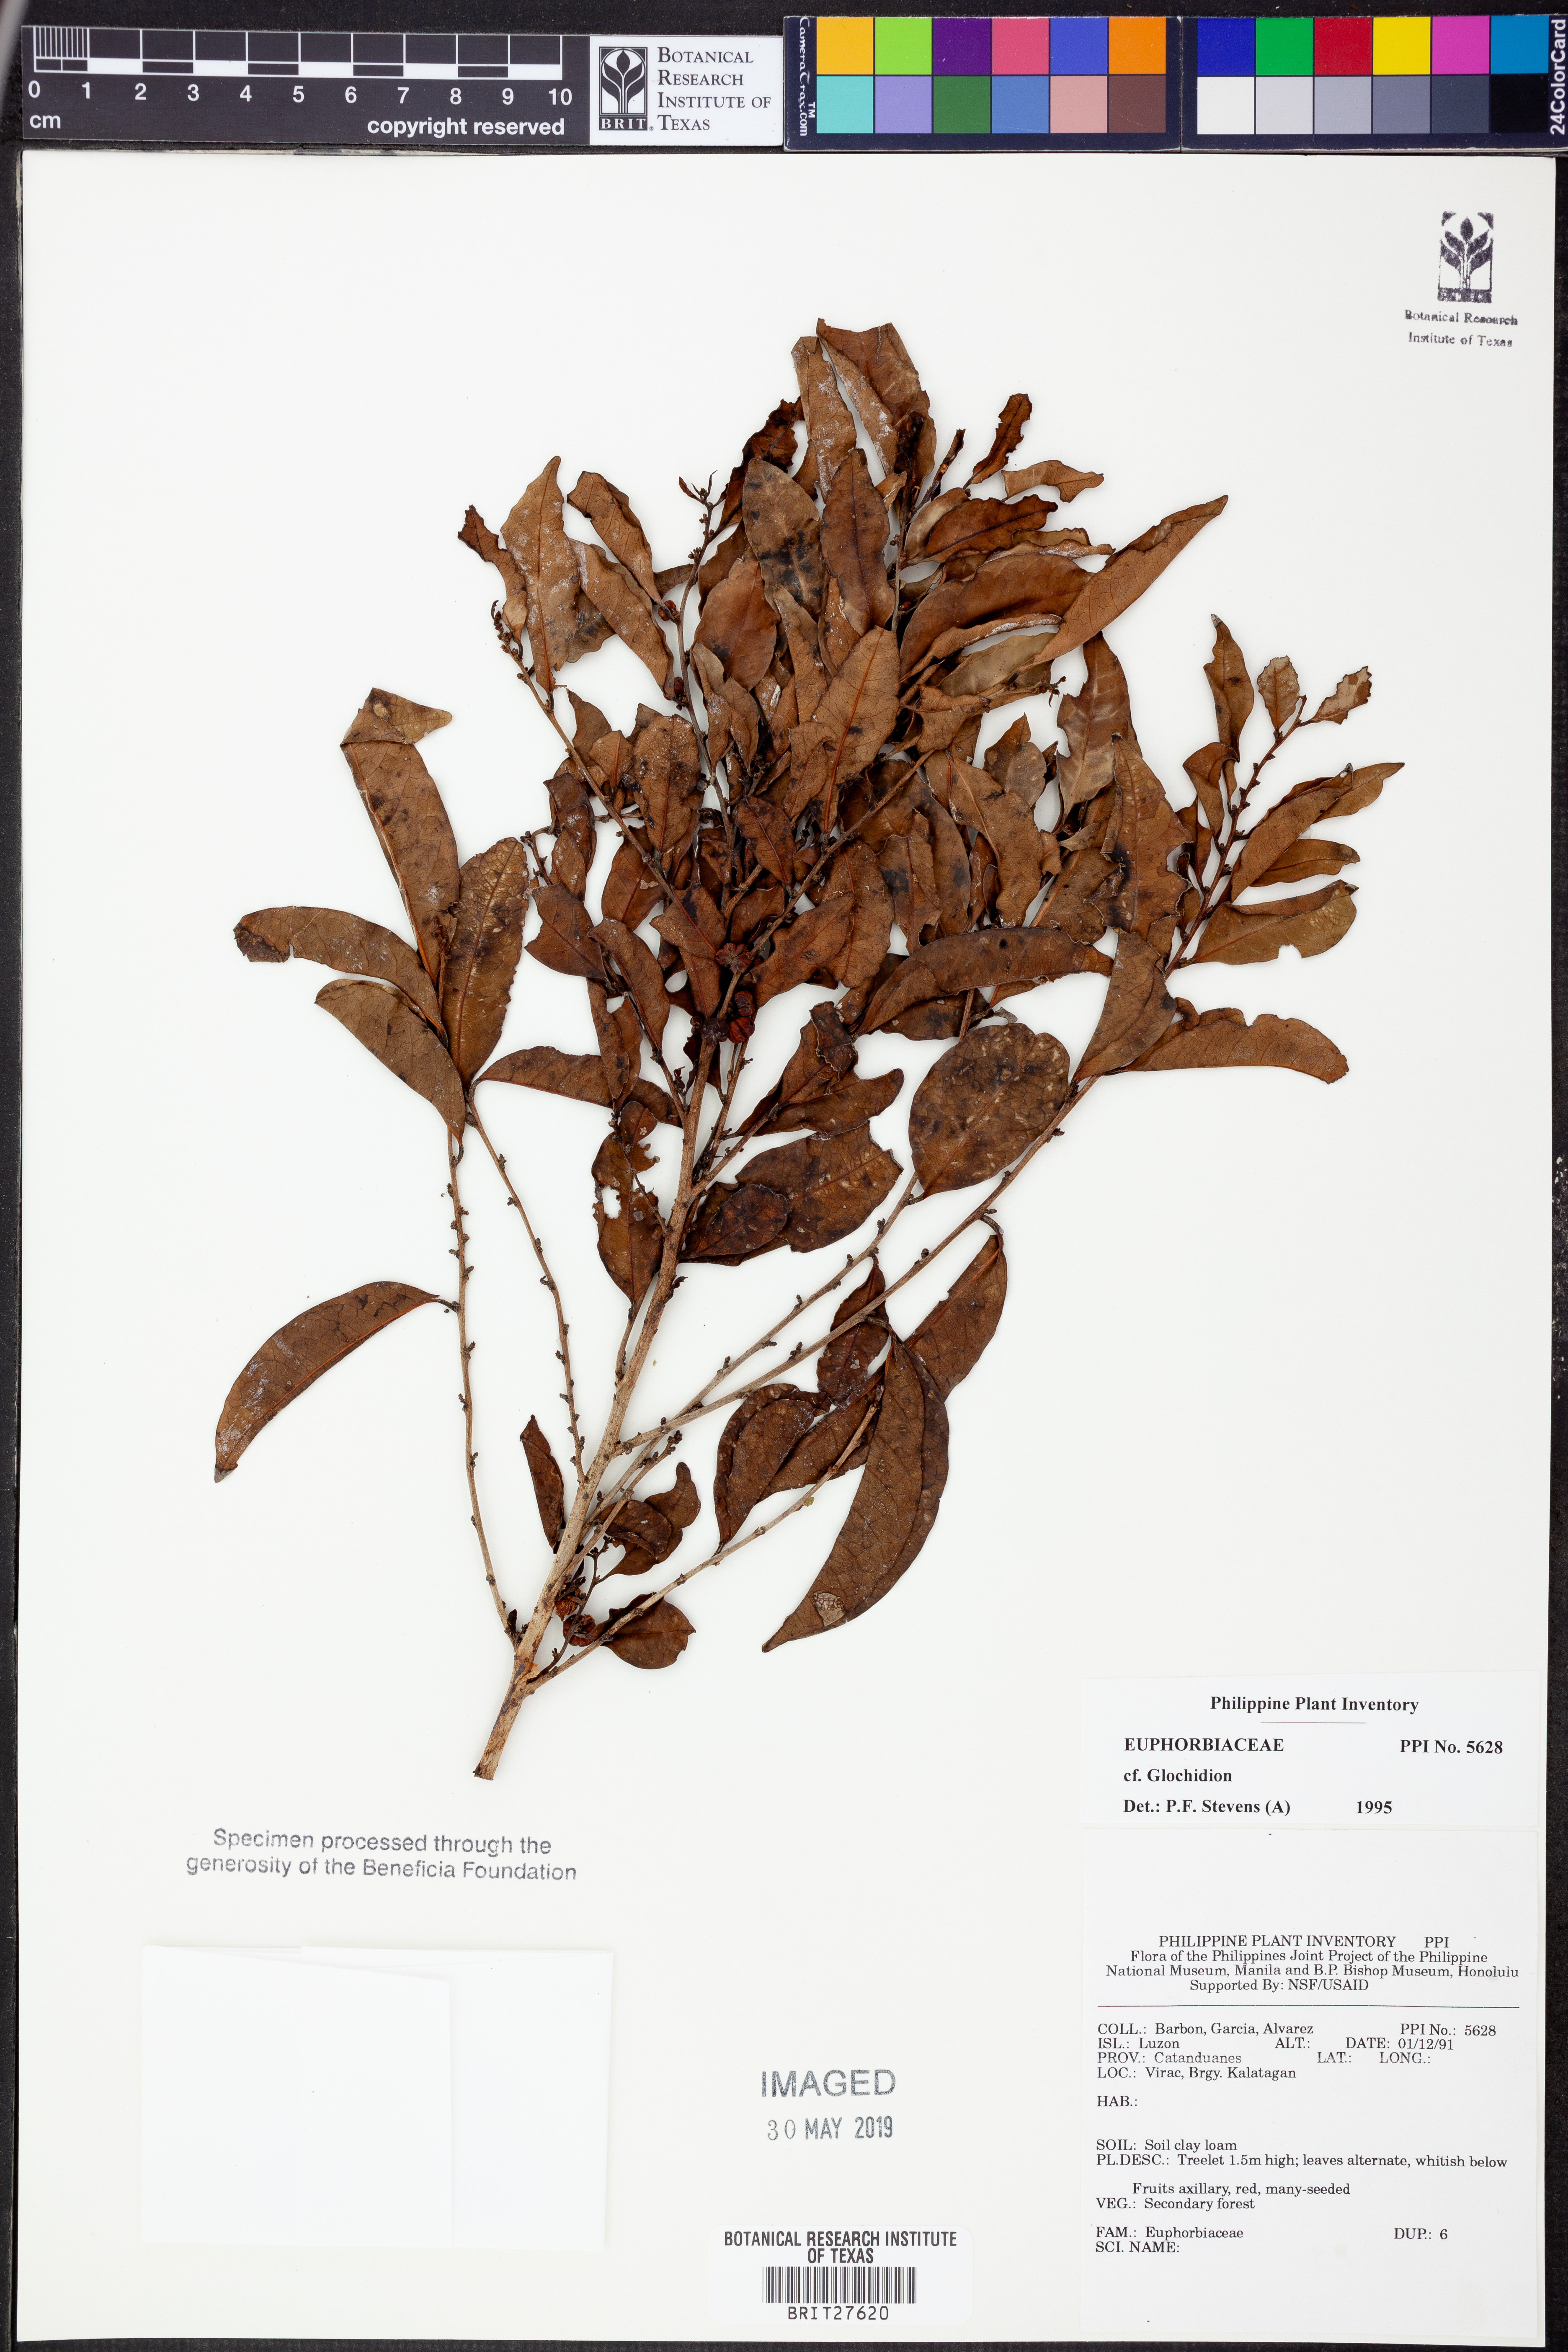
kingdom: Plantae
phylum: Tracheophyta
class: Magnoliopsida
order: Malpighiales
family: Phyllanthaceae
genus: Glochidion
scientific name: Glochidion
